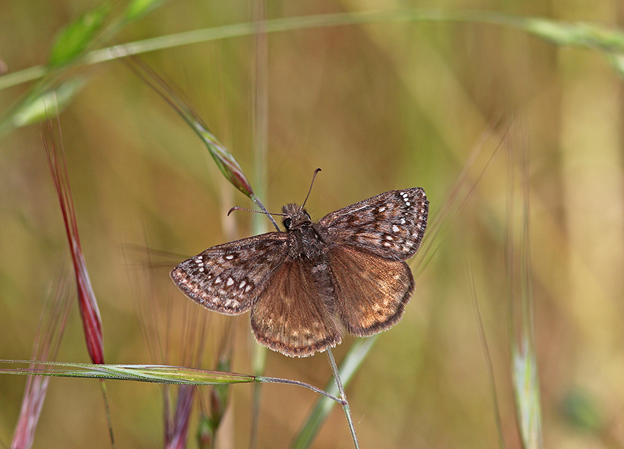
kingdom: Animalia
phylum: Arthropoda
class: Insecta
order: Lepidoptera
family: Hesperiidae
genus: Erynnis
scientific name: Erynnis propertius
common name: Propertius Duskywing
